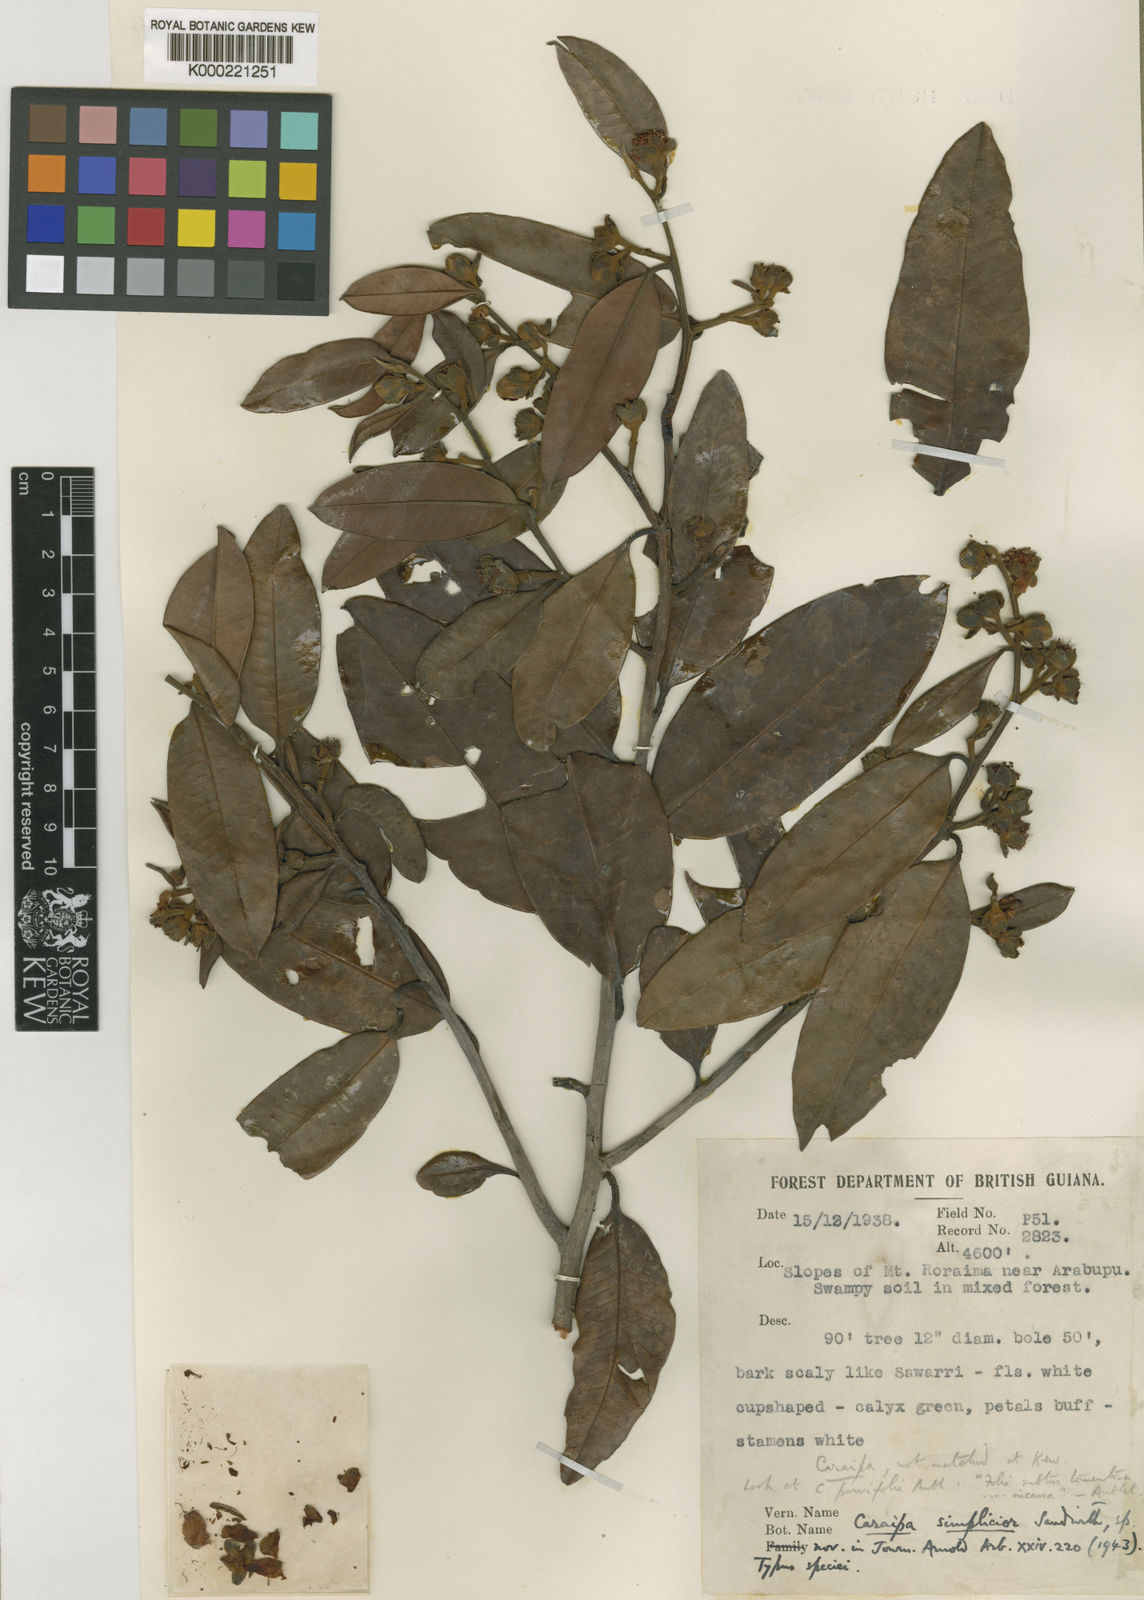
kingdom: Plantae
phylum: Tracheophyta
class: Magnoliopsida
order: Malpighiales
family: Calophyllaceae
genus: Caraipa
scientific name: Caraipa tereticaulis
